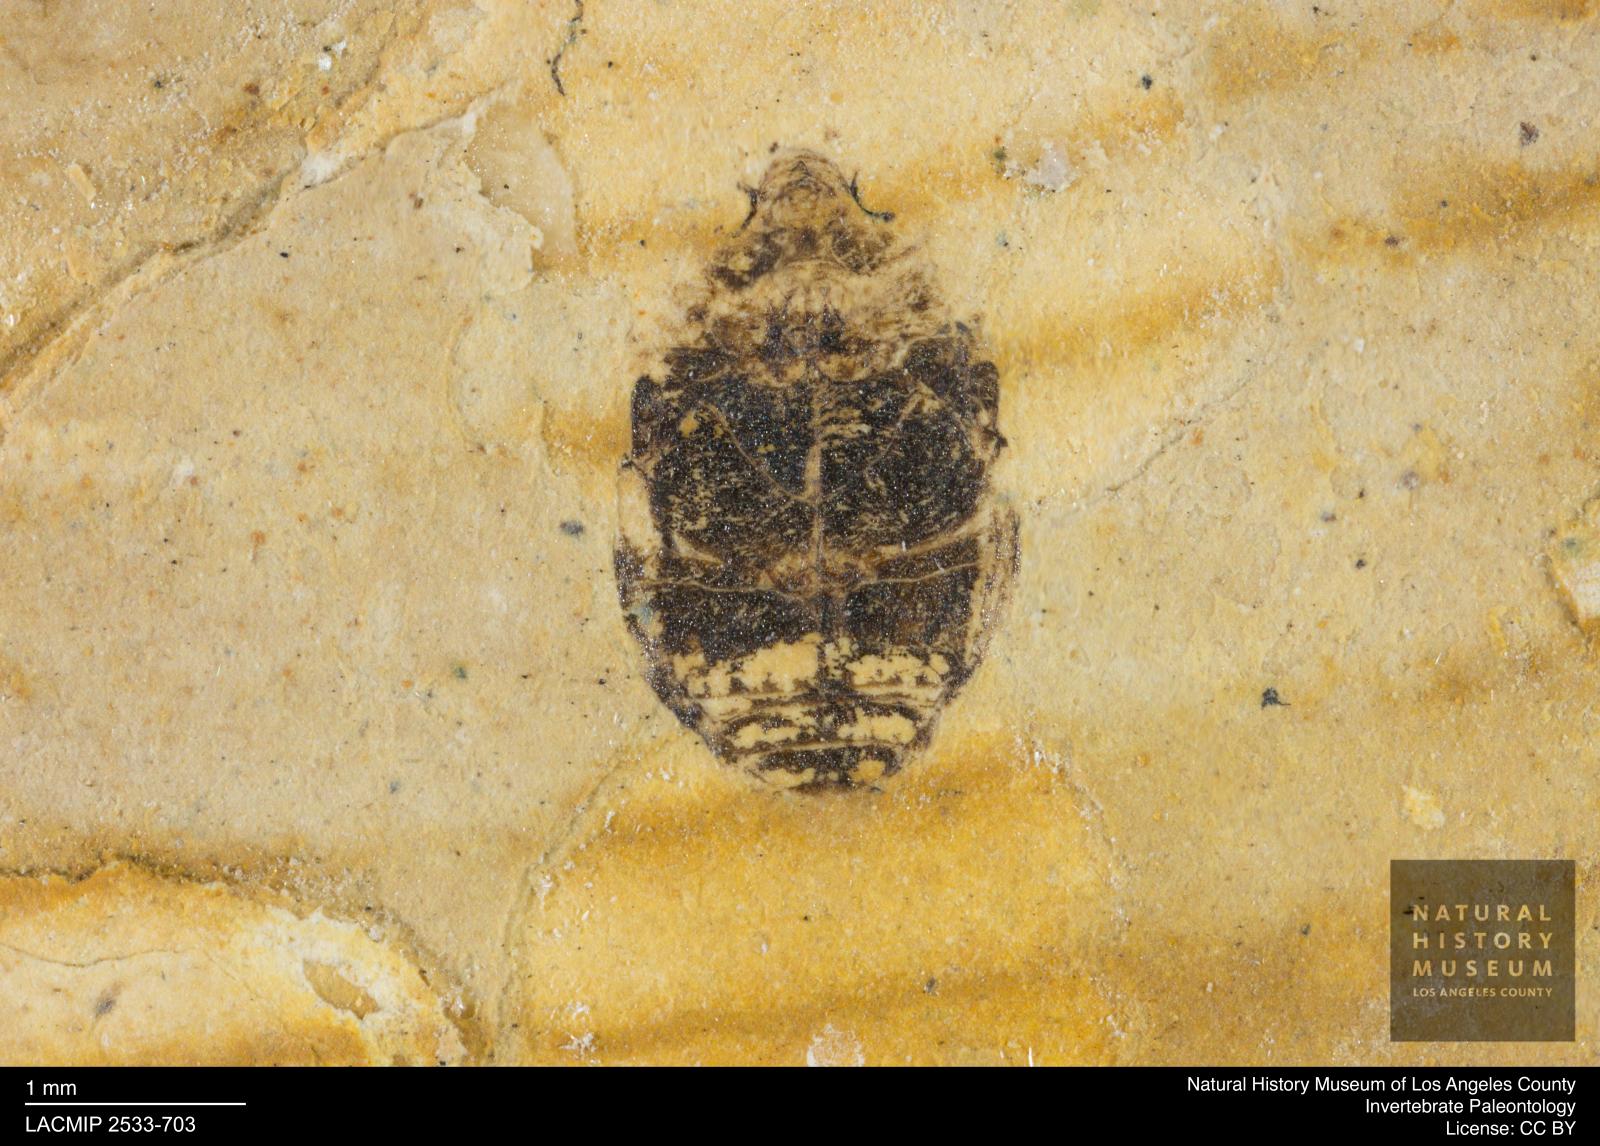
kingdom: Animalia
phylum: Arthropoda
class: Insecta
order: Coleoptera
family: Dytiscidae
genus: Oreodytes
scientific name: Oreodytes cryptolineatus
